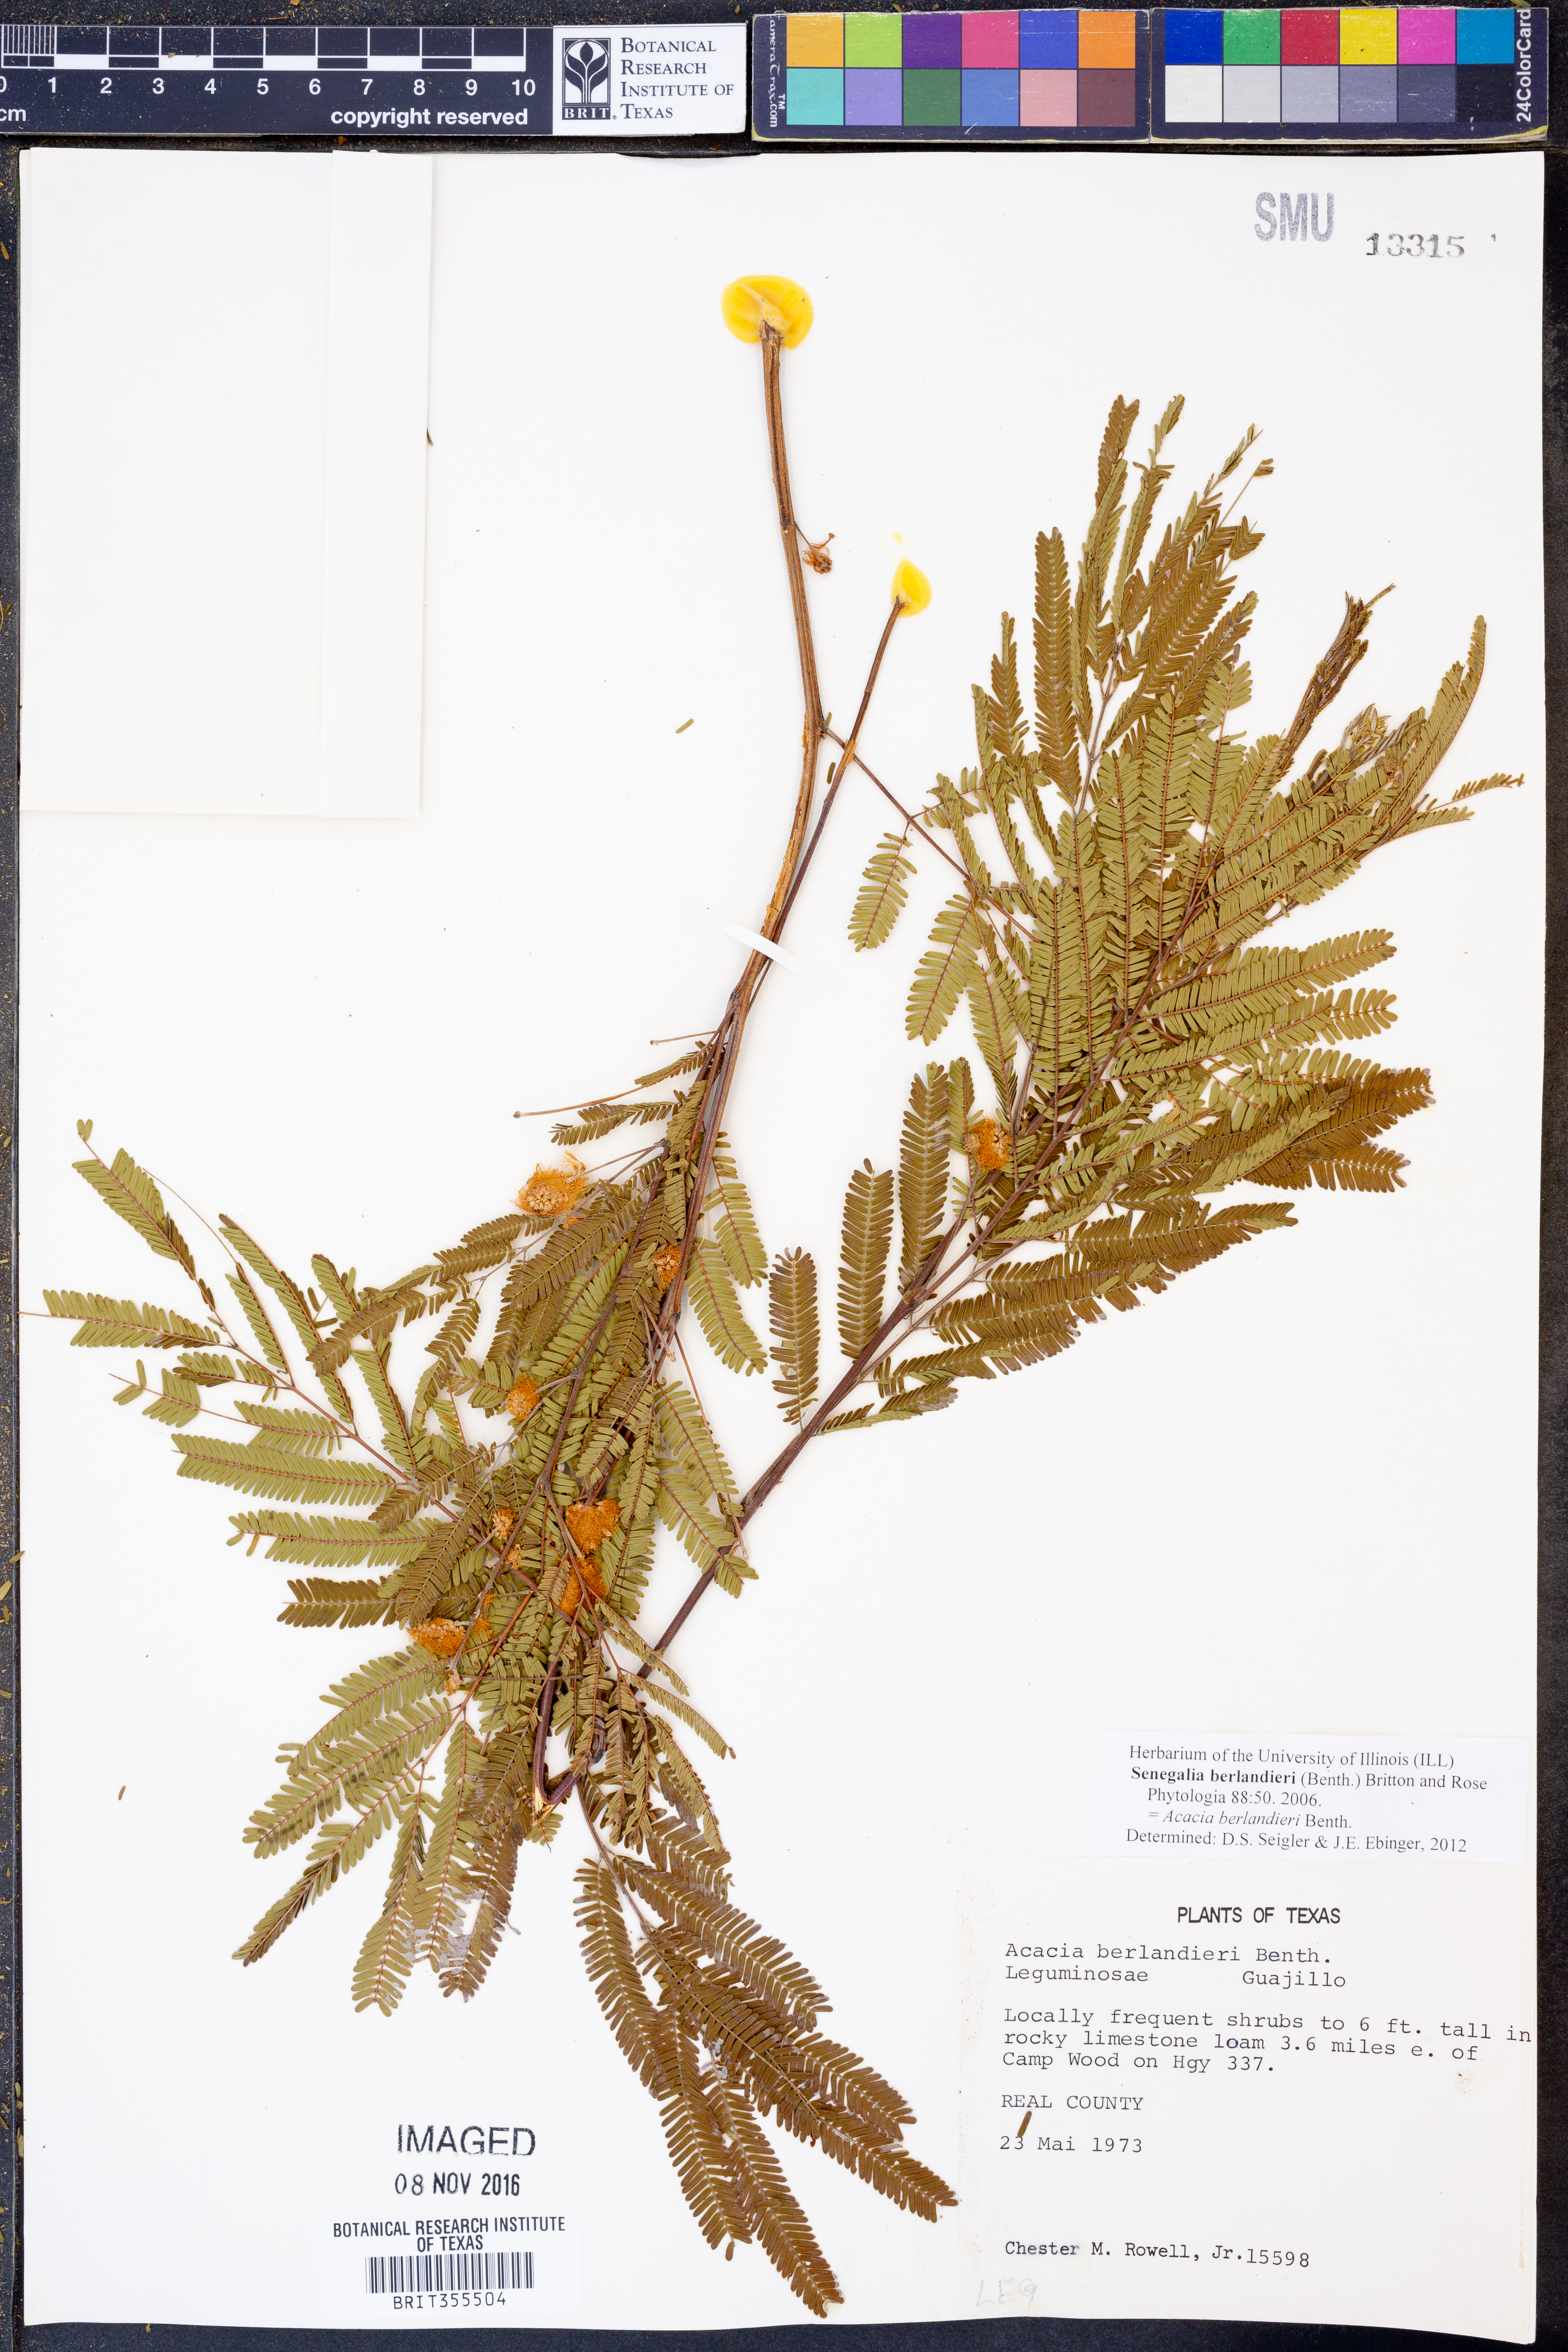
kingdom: Plantae
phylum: Tracheophyta
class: Magnoliopsida
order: Fabales
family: Fabaceae
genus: Senegalia
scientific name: Senegalia berlandieri
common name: Berlandier acacia
